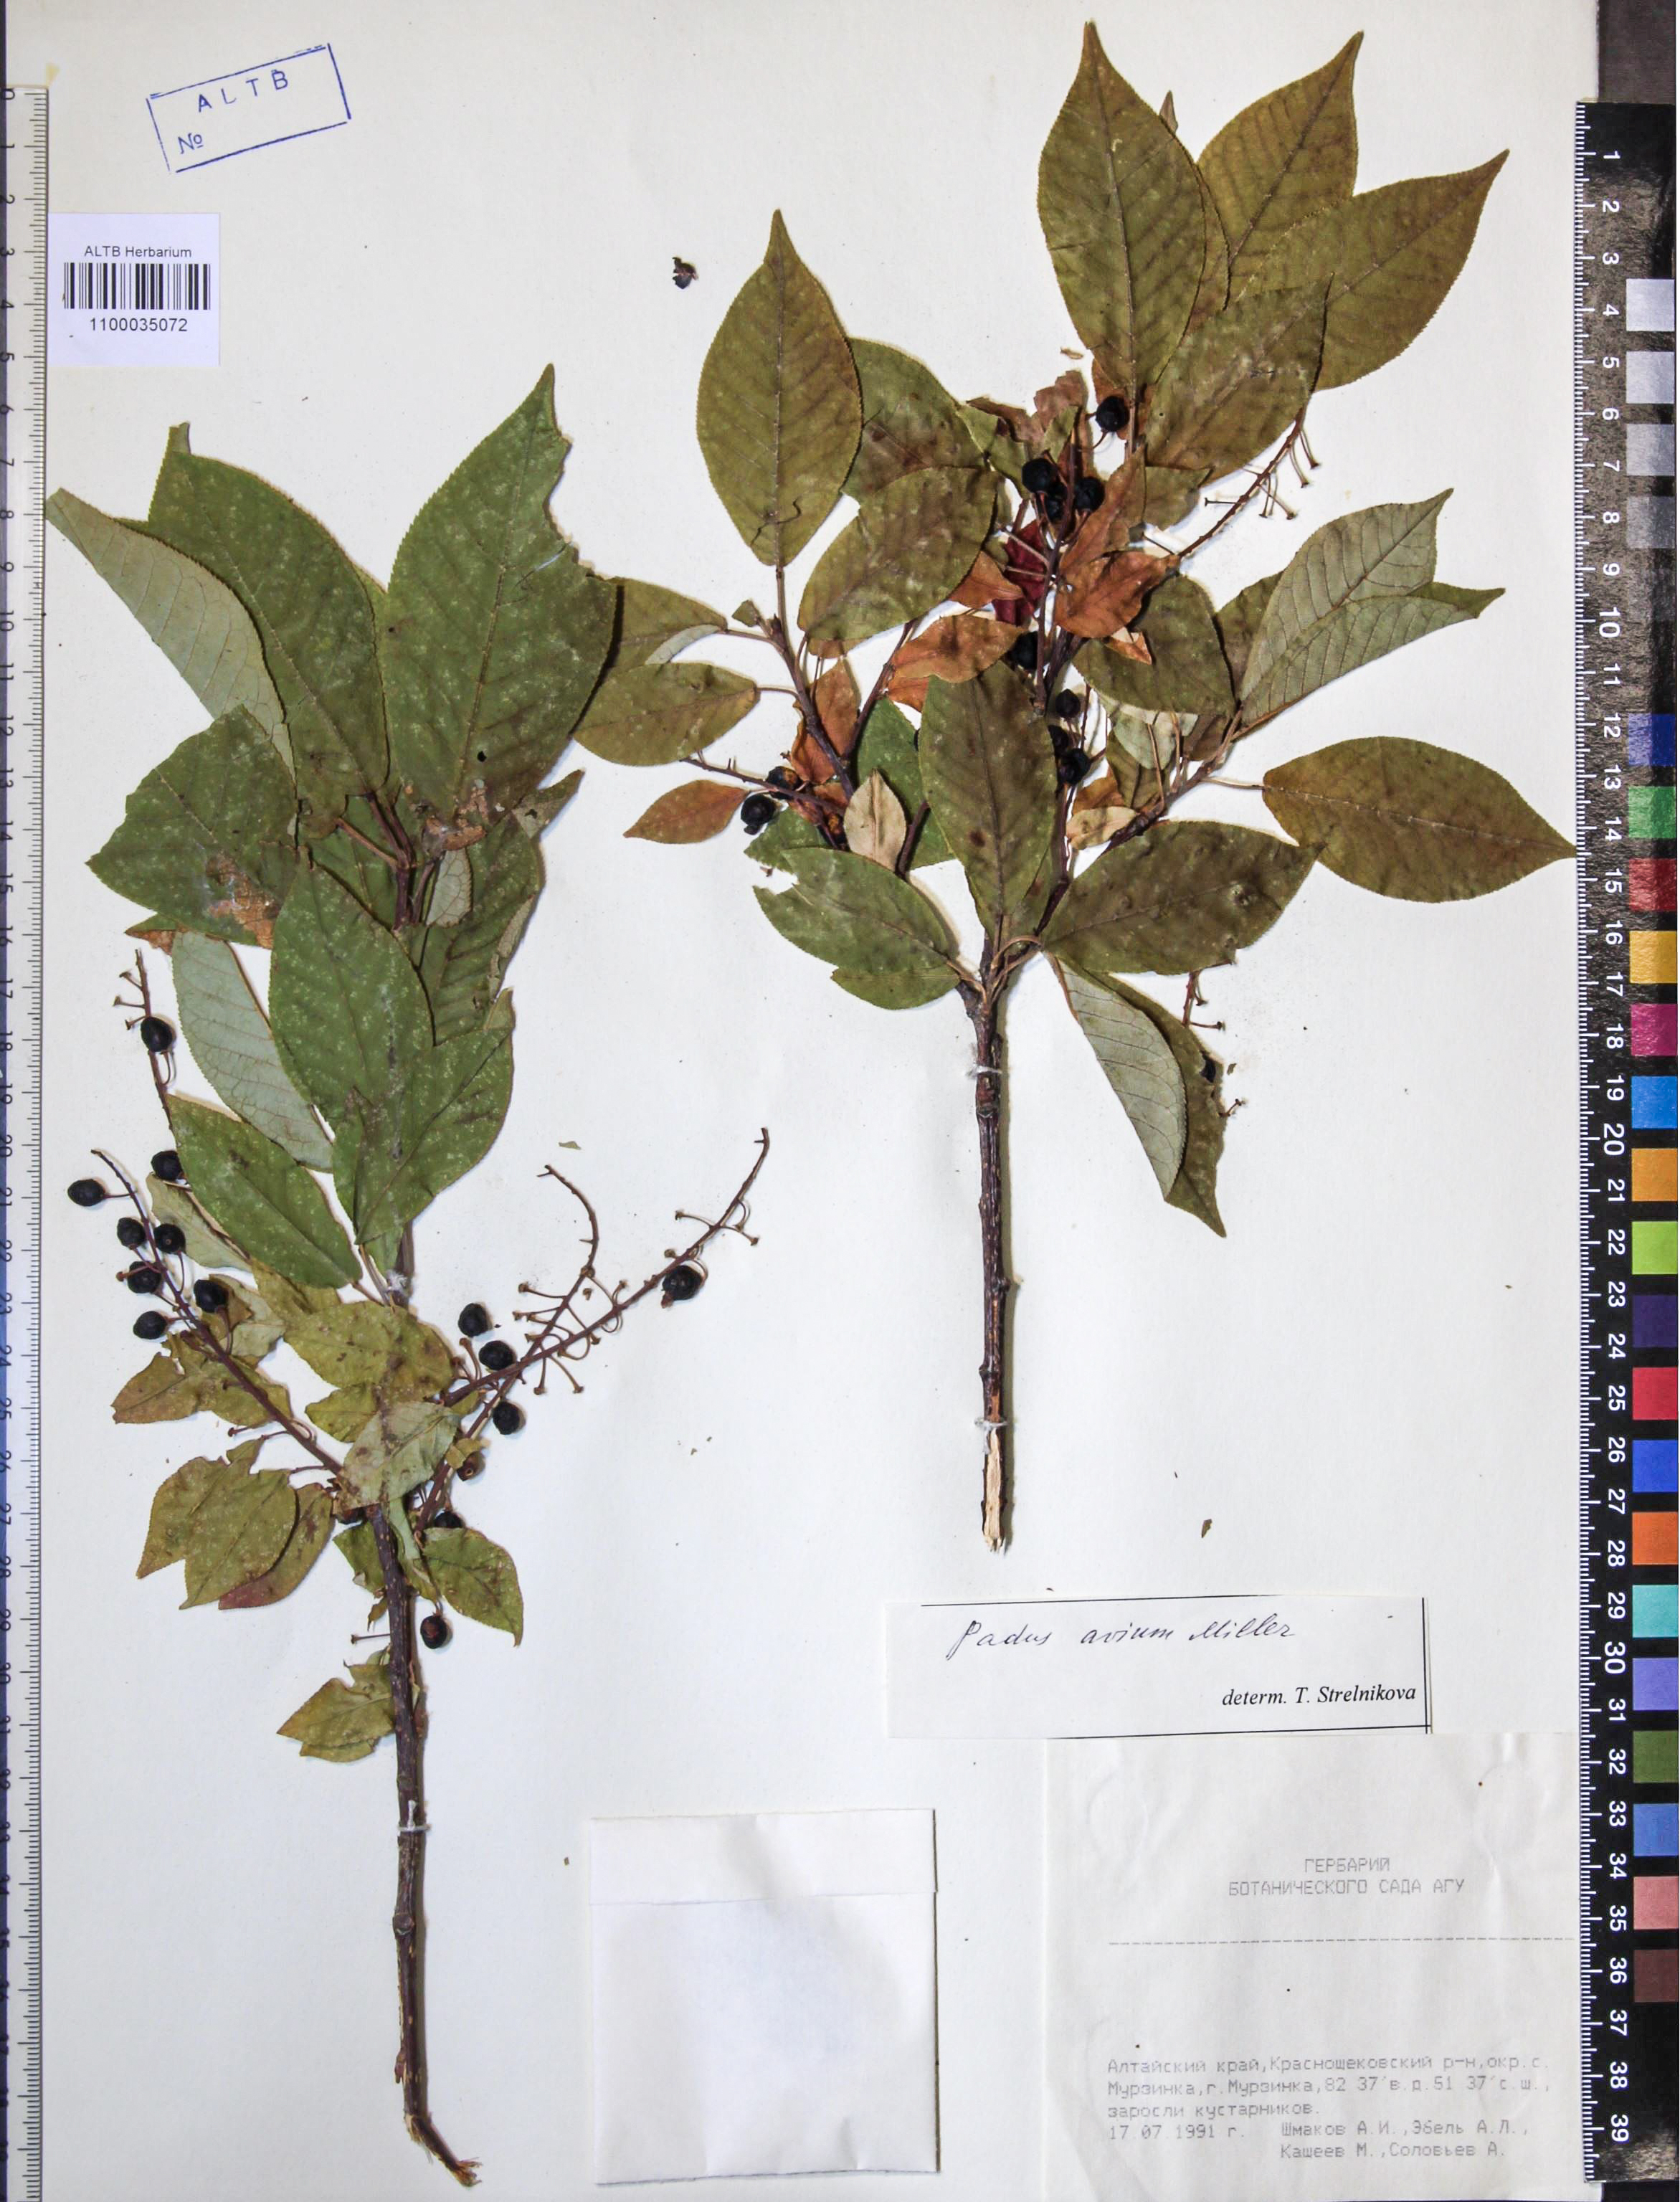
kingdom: Plantae
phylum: Tracheophyta
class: Magnoliopsida
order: Rosales
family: Rosaceae
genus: Prunus
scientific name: Prunus padus
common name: Bird cherry
